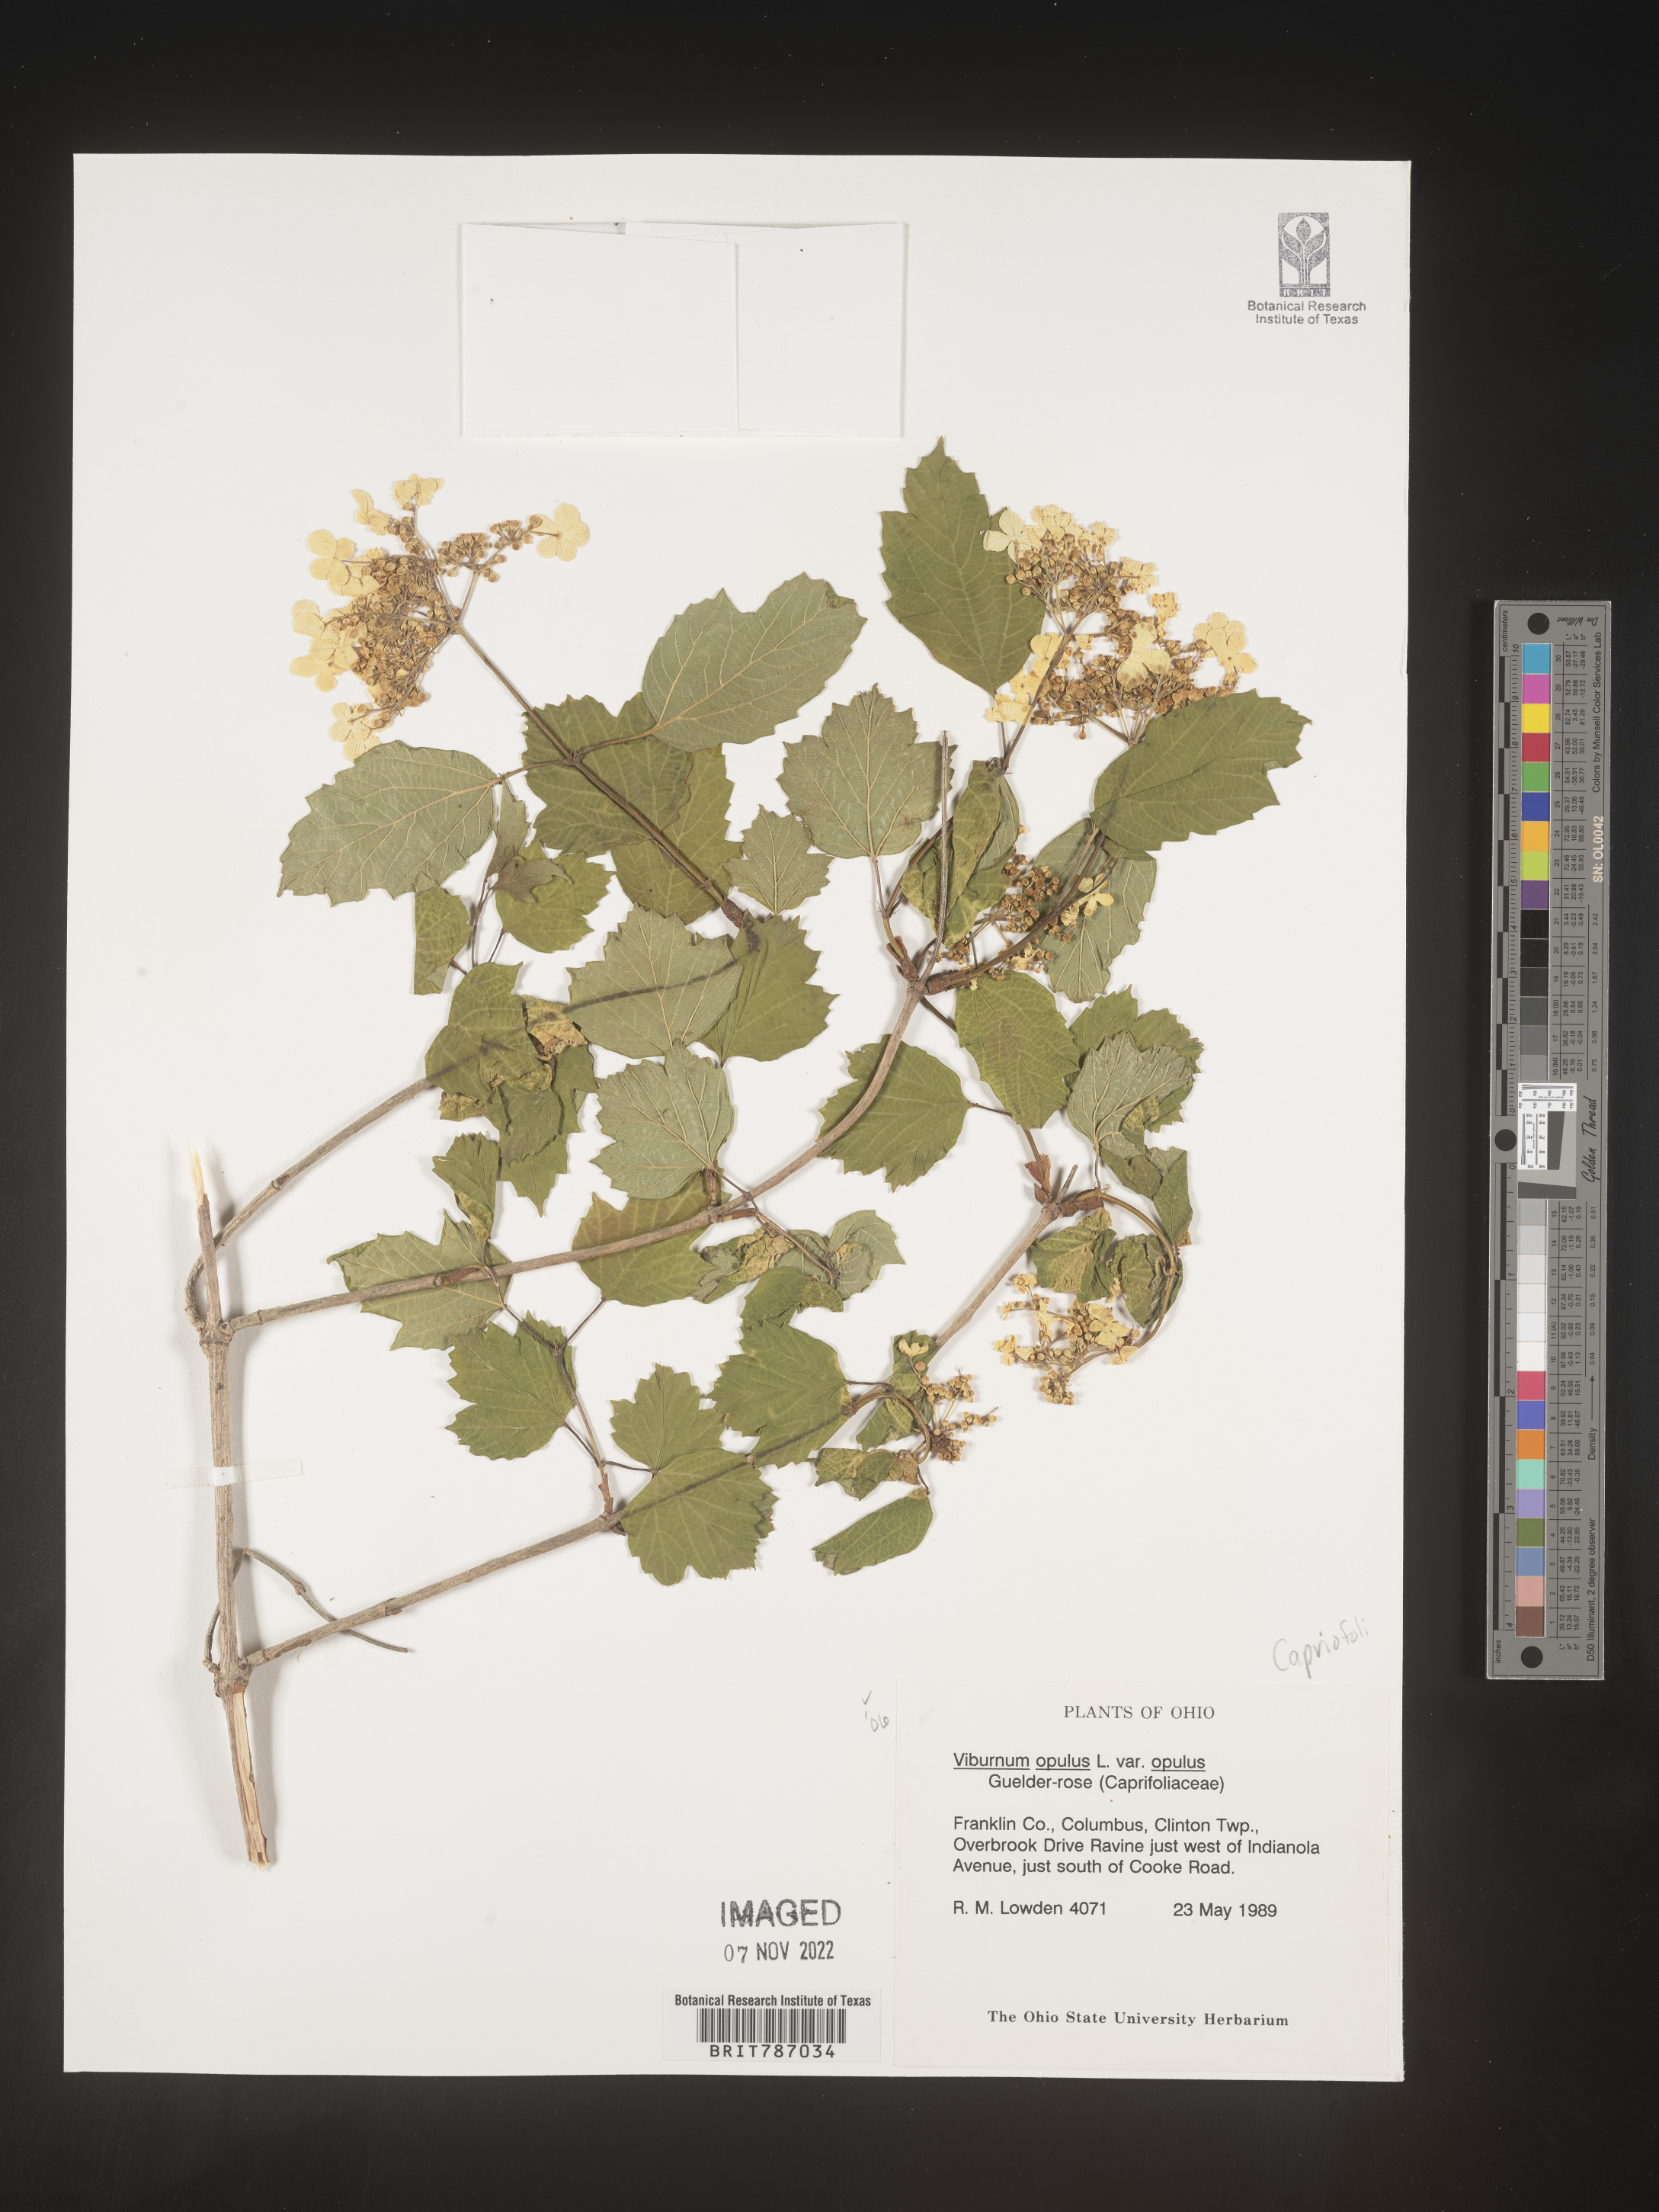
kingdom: Plantae
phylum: Tracheophyta
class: Magnoliopsida
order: Dipsacales
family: Viburnaceae
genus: Viburnum
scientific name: Viburnum opulus
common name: Guelder-rose
